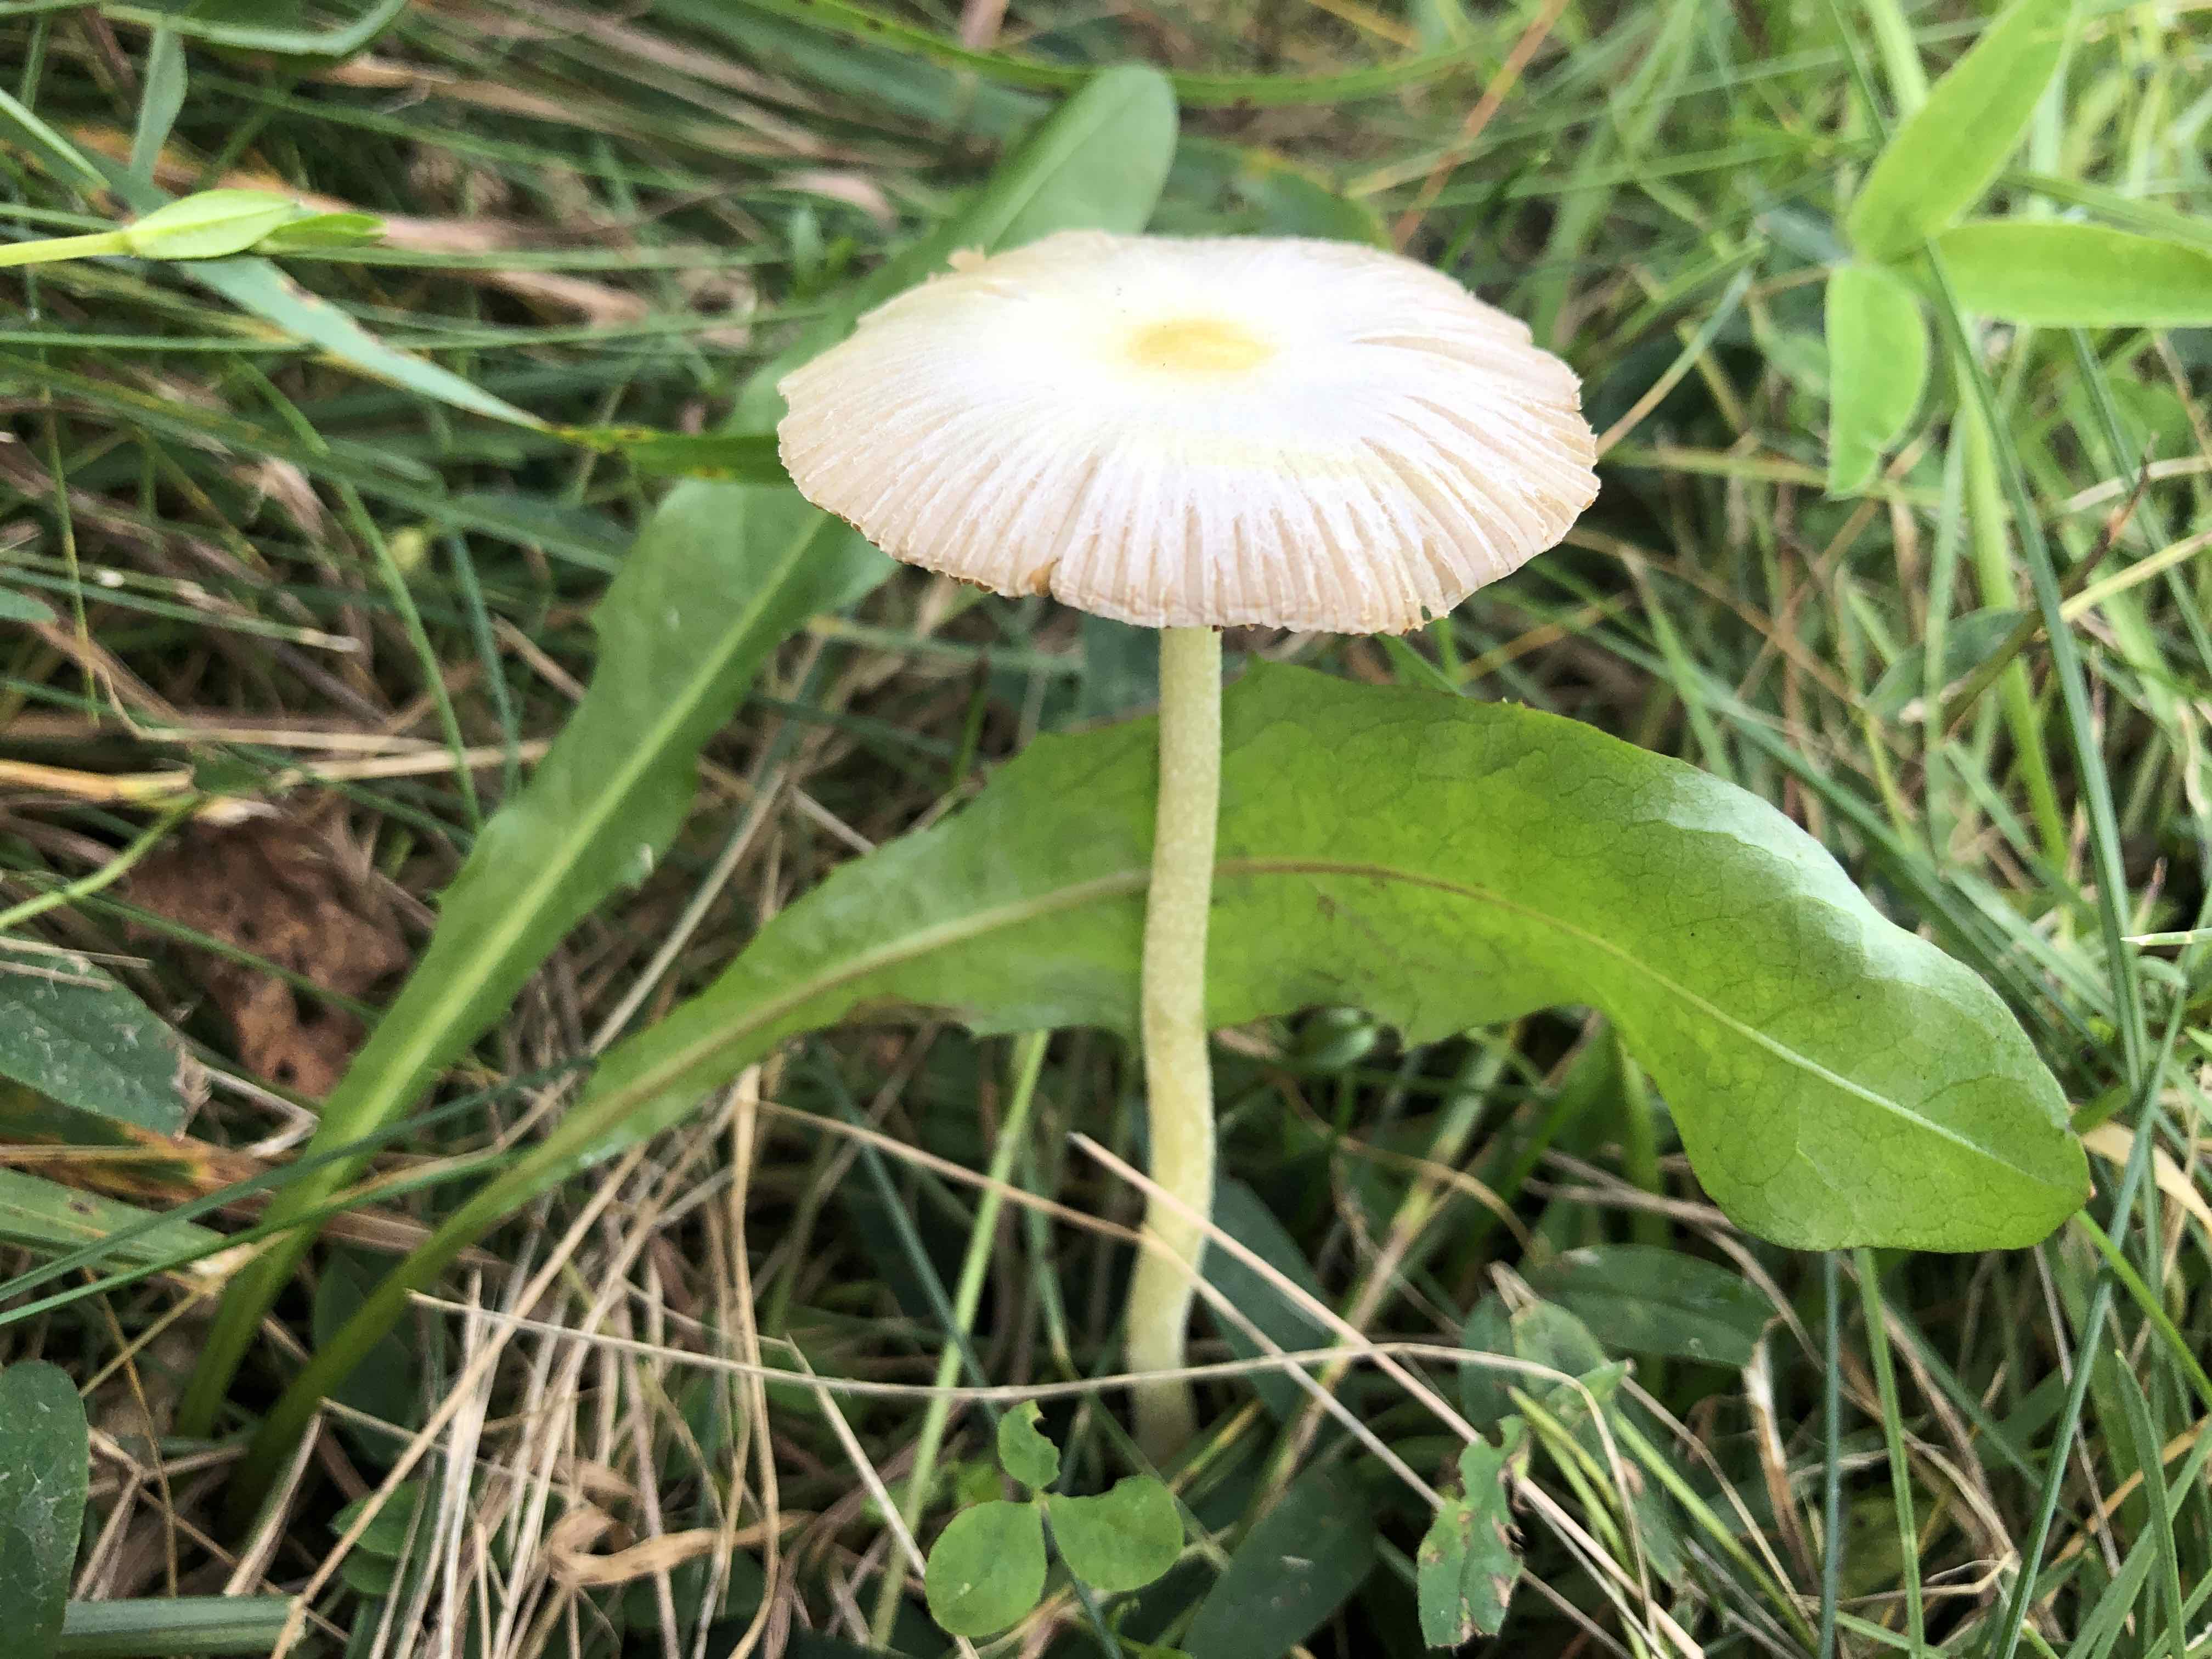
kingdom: Fungi
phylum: Basidiomycota
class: Agaricomycetes
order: Agaricales
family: Bolbitiaceae
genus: Bolbitius
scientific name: Bolbitius titubans
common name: almindelig gulhat
